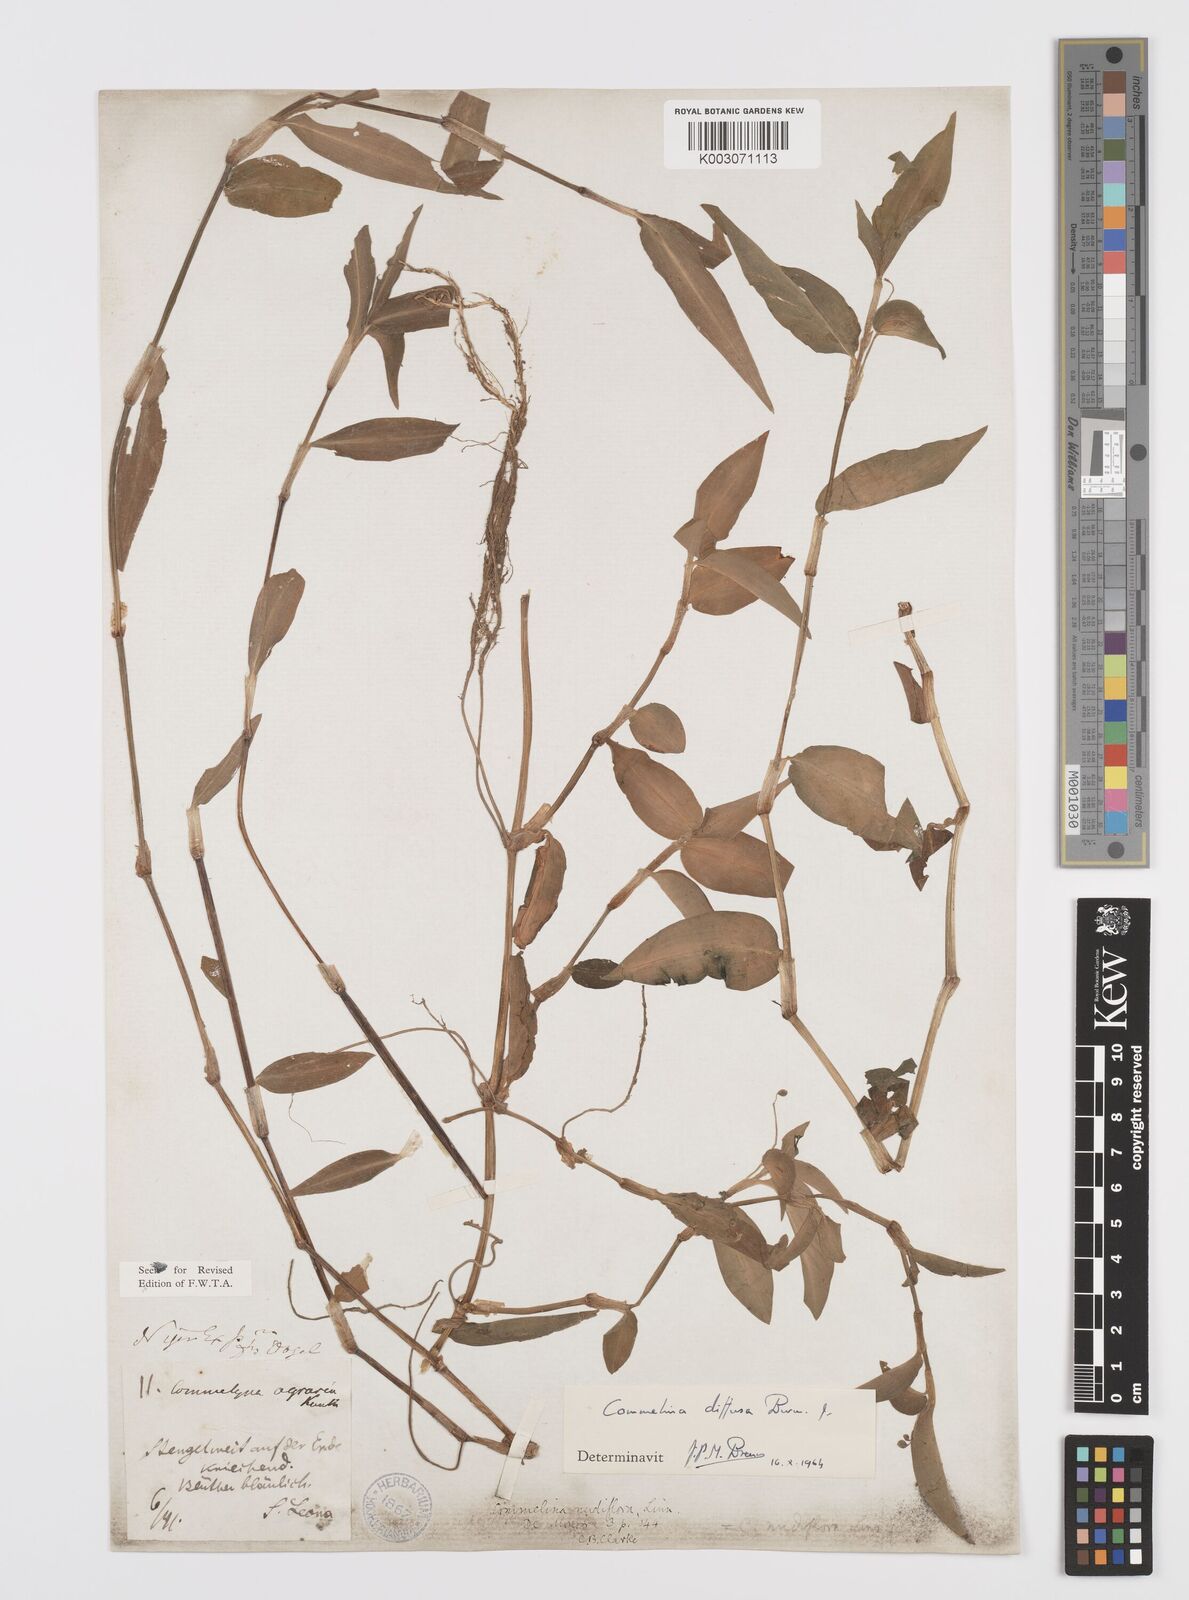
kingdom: Plantae
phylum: Tracheophyta
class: Liliopsida
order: Commelinales
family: Commelinaceae
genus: Commelina
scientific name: Commelina diffusa
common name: Climbing dayflower
